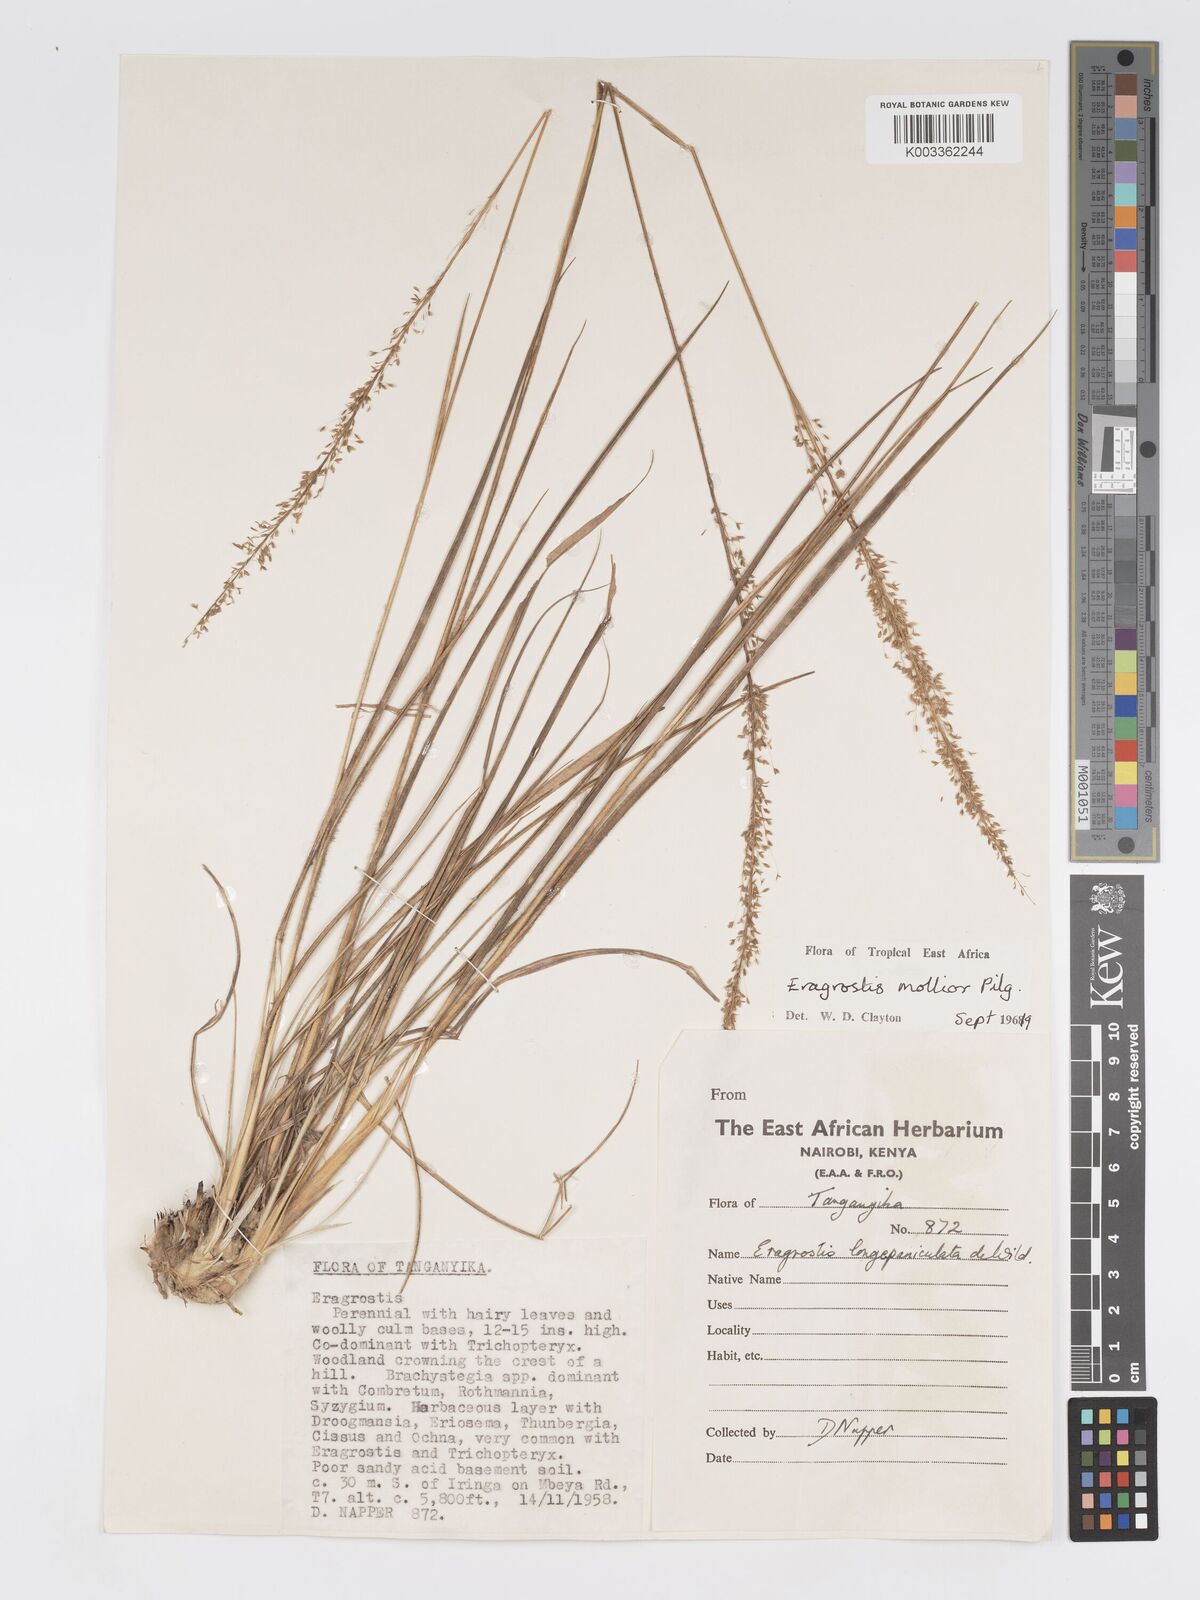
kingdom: Plantae
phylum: Tracheophyta
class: Liliopsida
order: Poales
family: Poaceae
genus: Eragrostis
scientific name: Eragrostis mollior
